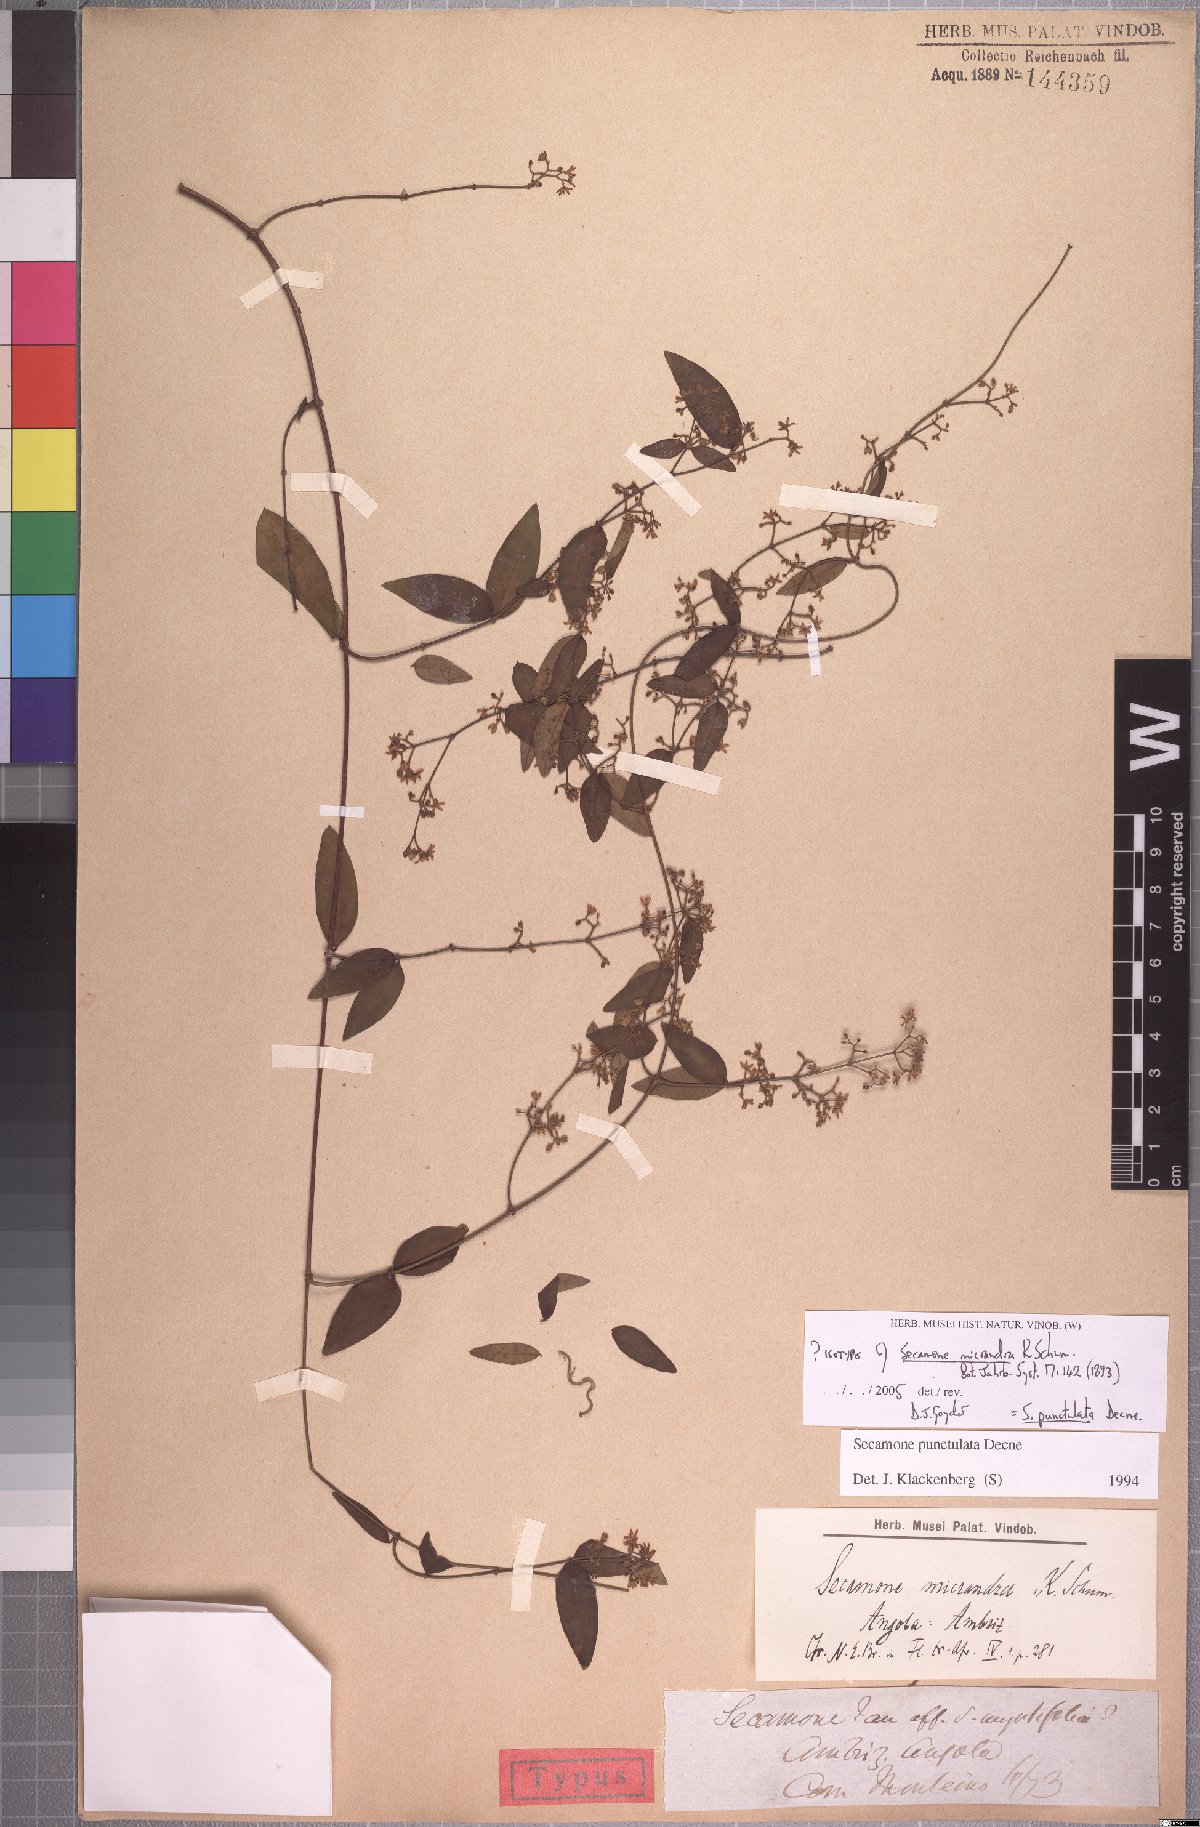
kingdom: Plantae
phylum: Tracheophyta
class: Magnoliopsida
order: Gentianales
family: Apocynaceae
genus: Secamone
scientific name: Secamone punctulata
